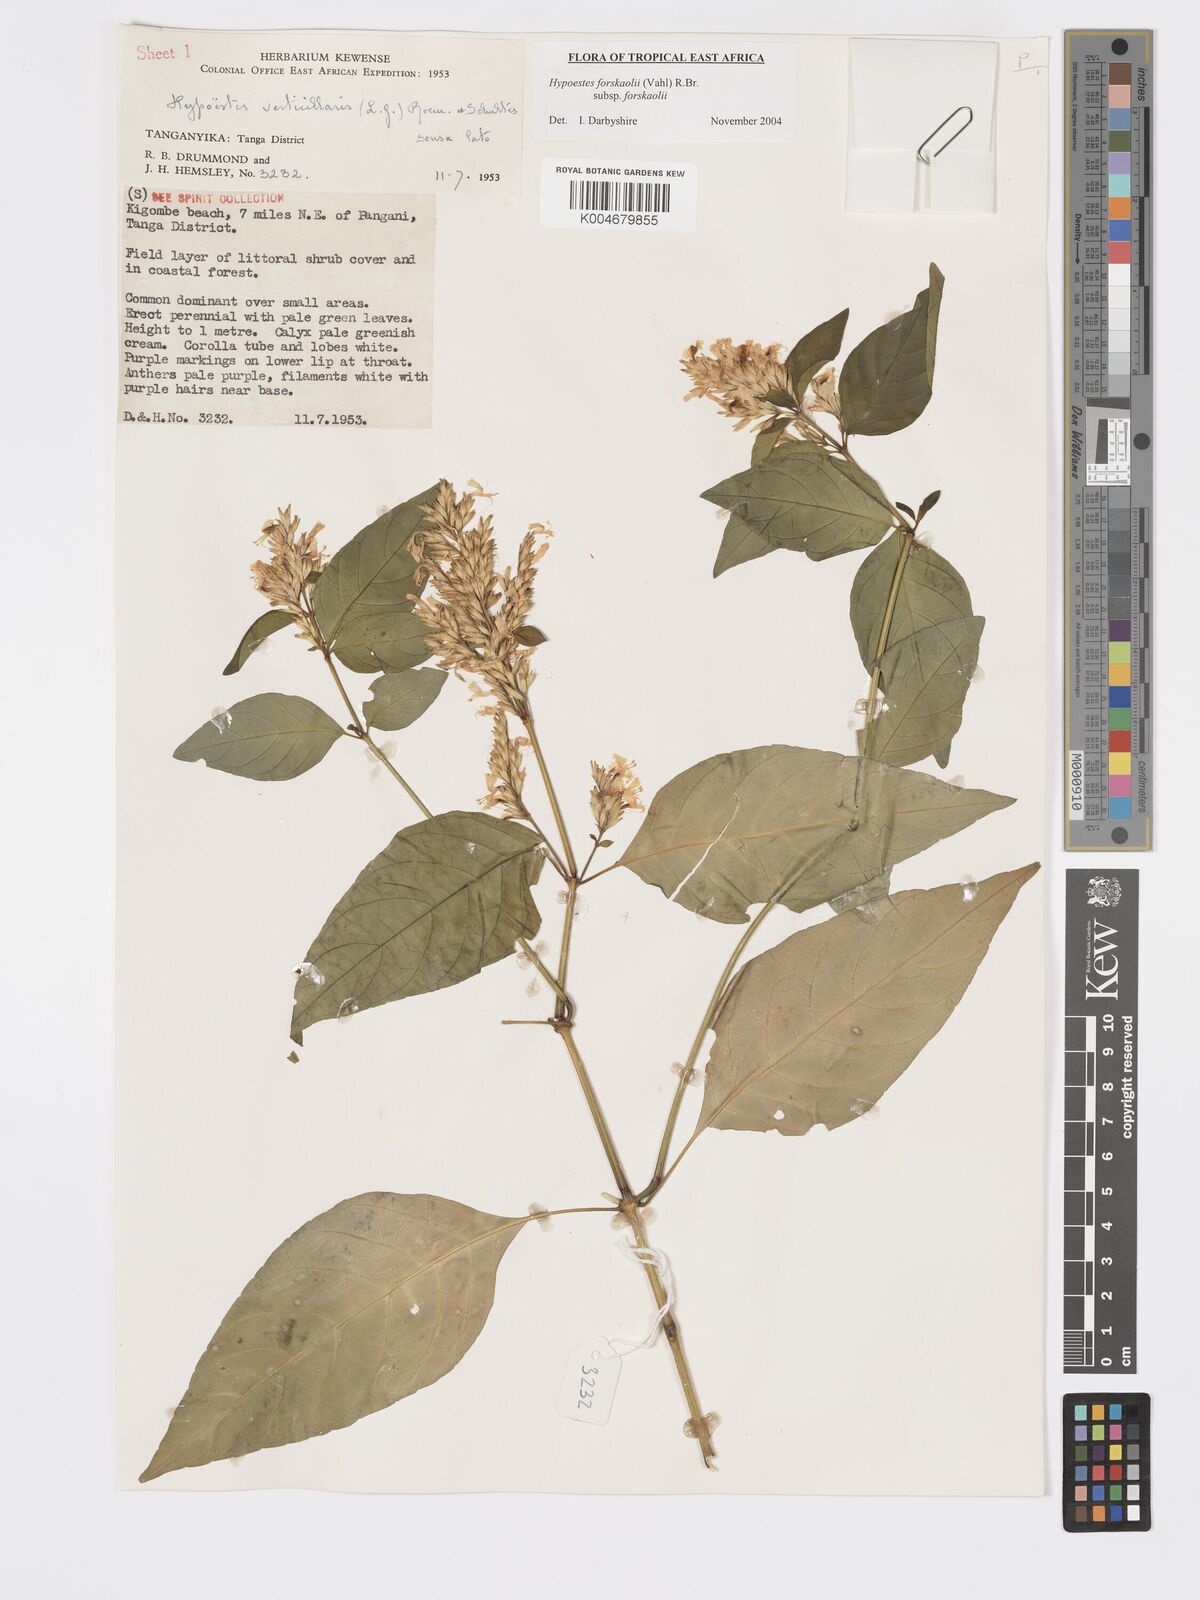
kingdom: Plantae
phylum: Tracheophyta
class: Magnoliopsida
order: Lamiales
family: Acanthaceae
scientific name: Acanthaceae
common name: Acanthaceae
